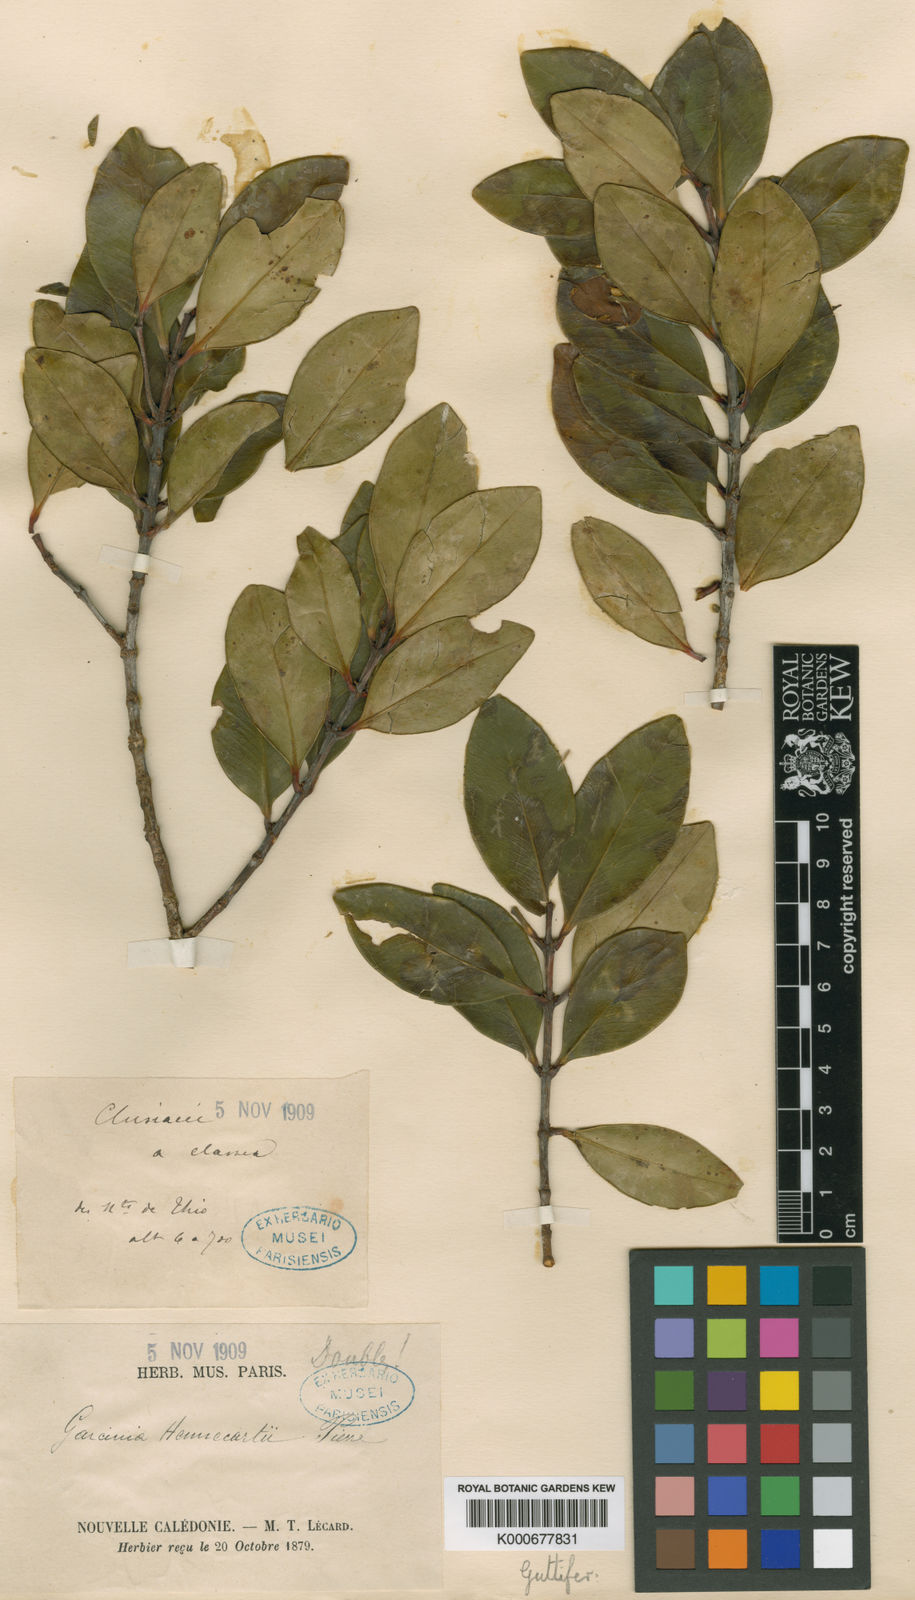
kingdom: Plantae
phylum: Tracheophyta
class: Magnoliopsida
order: Malpighiales
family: Clusiaceae
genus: Garcinia
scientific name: Garcinia hennecartii
